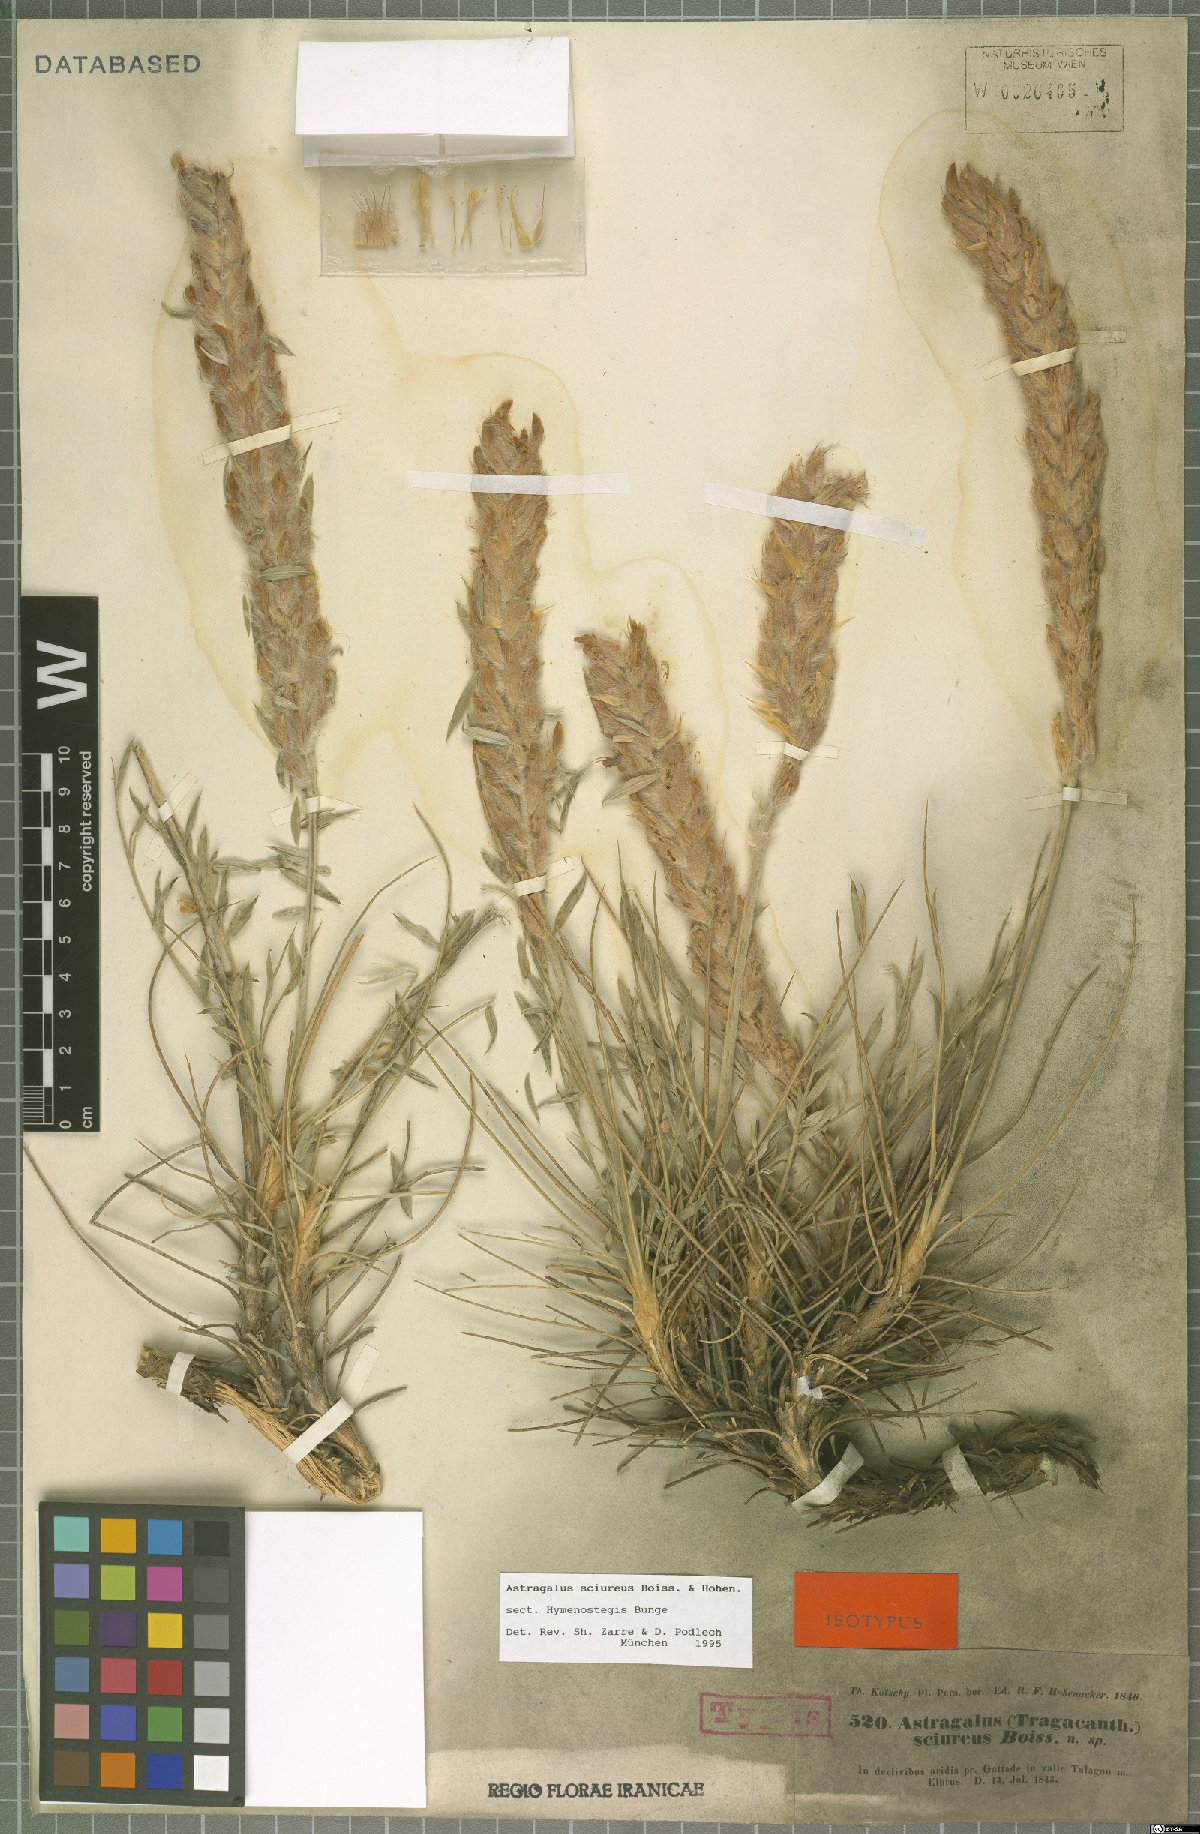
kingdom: Plantae
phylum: Tracheophyta
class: Magnoliopsida
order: Fabales
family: Fabaceae
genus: Astragalus
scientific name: Astragalus sciureus
